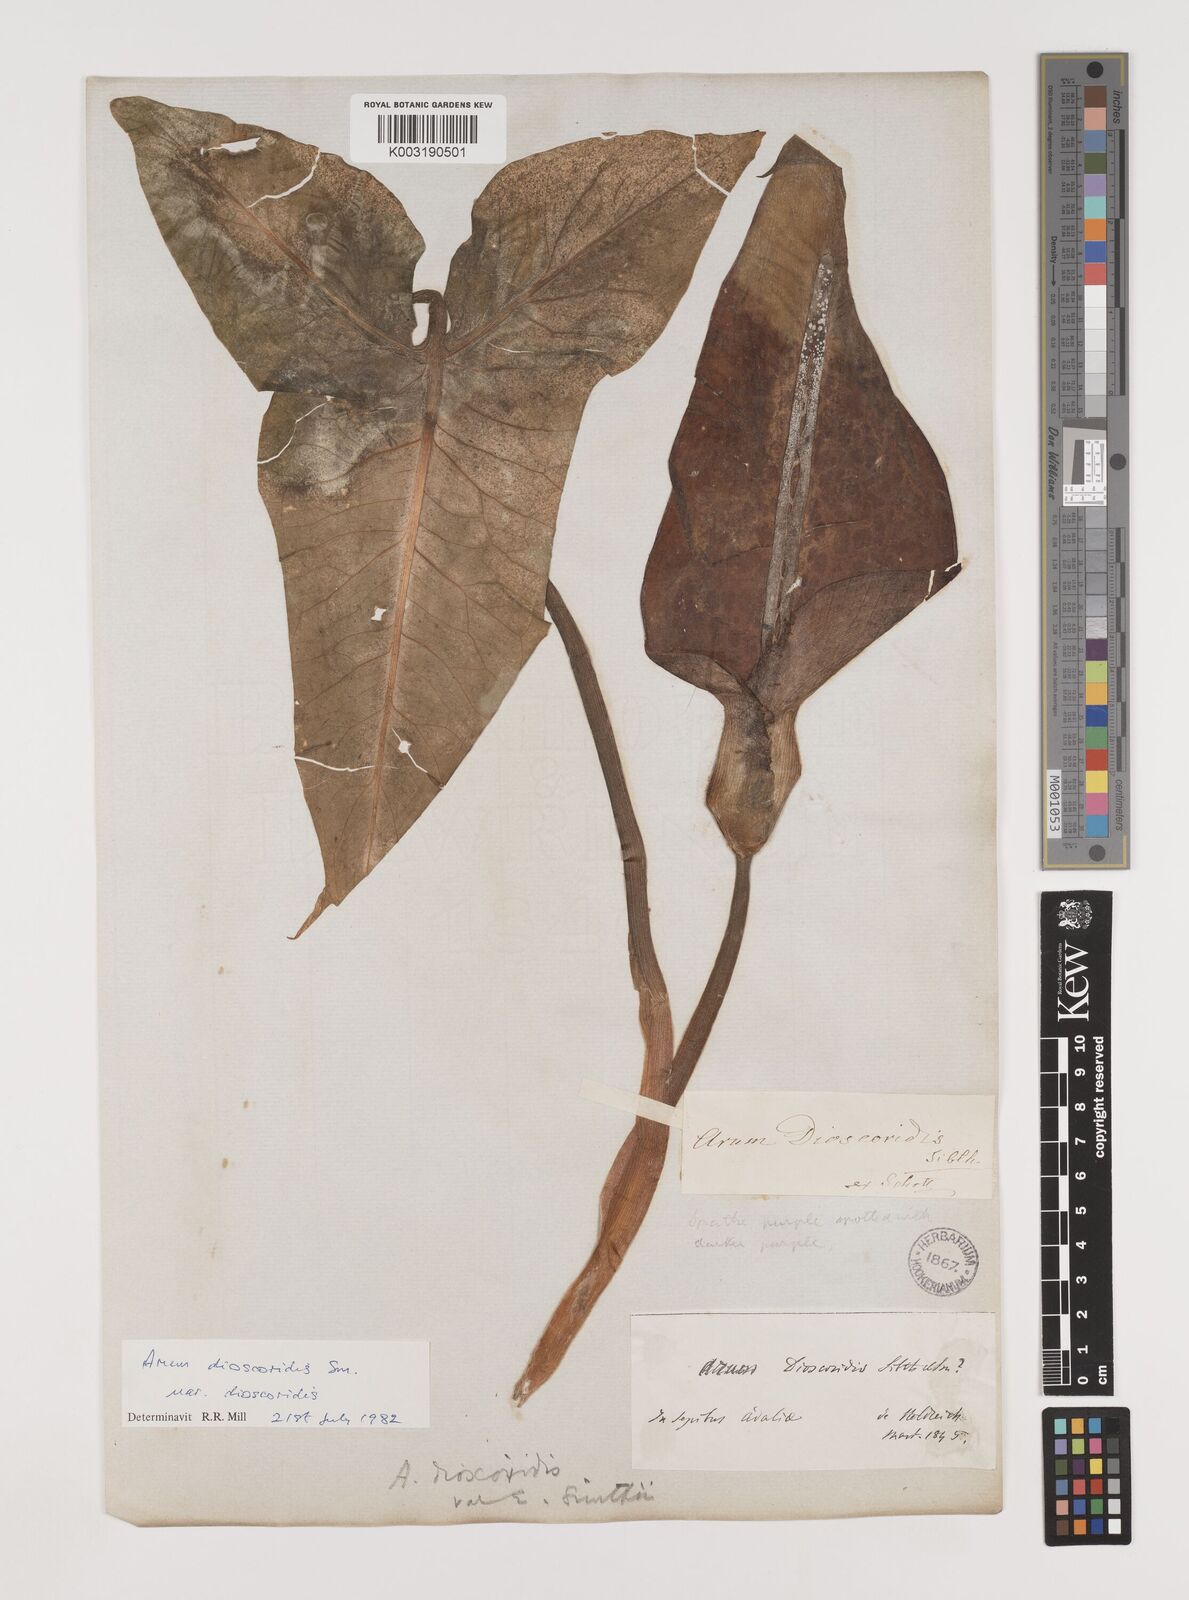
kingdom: Plantae
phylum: Tracheophyta
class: Liliopsida
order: Alismatales
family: Araceae
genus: Arum
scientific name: Arum dioscoridis
